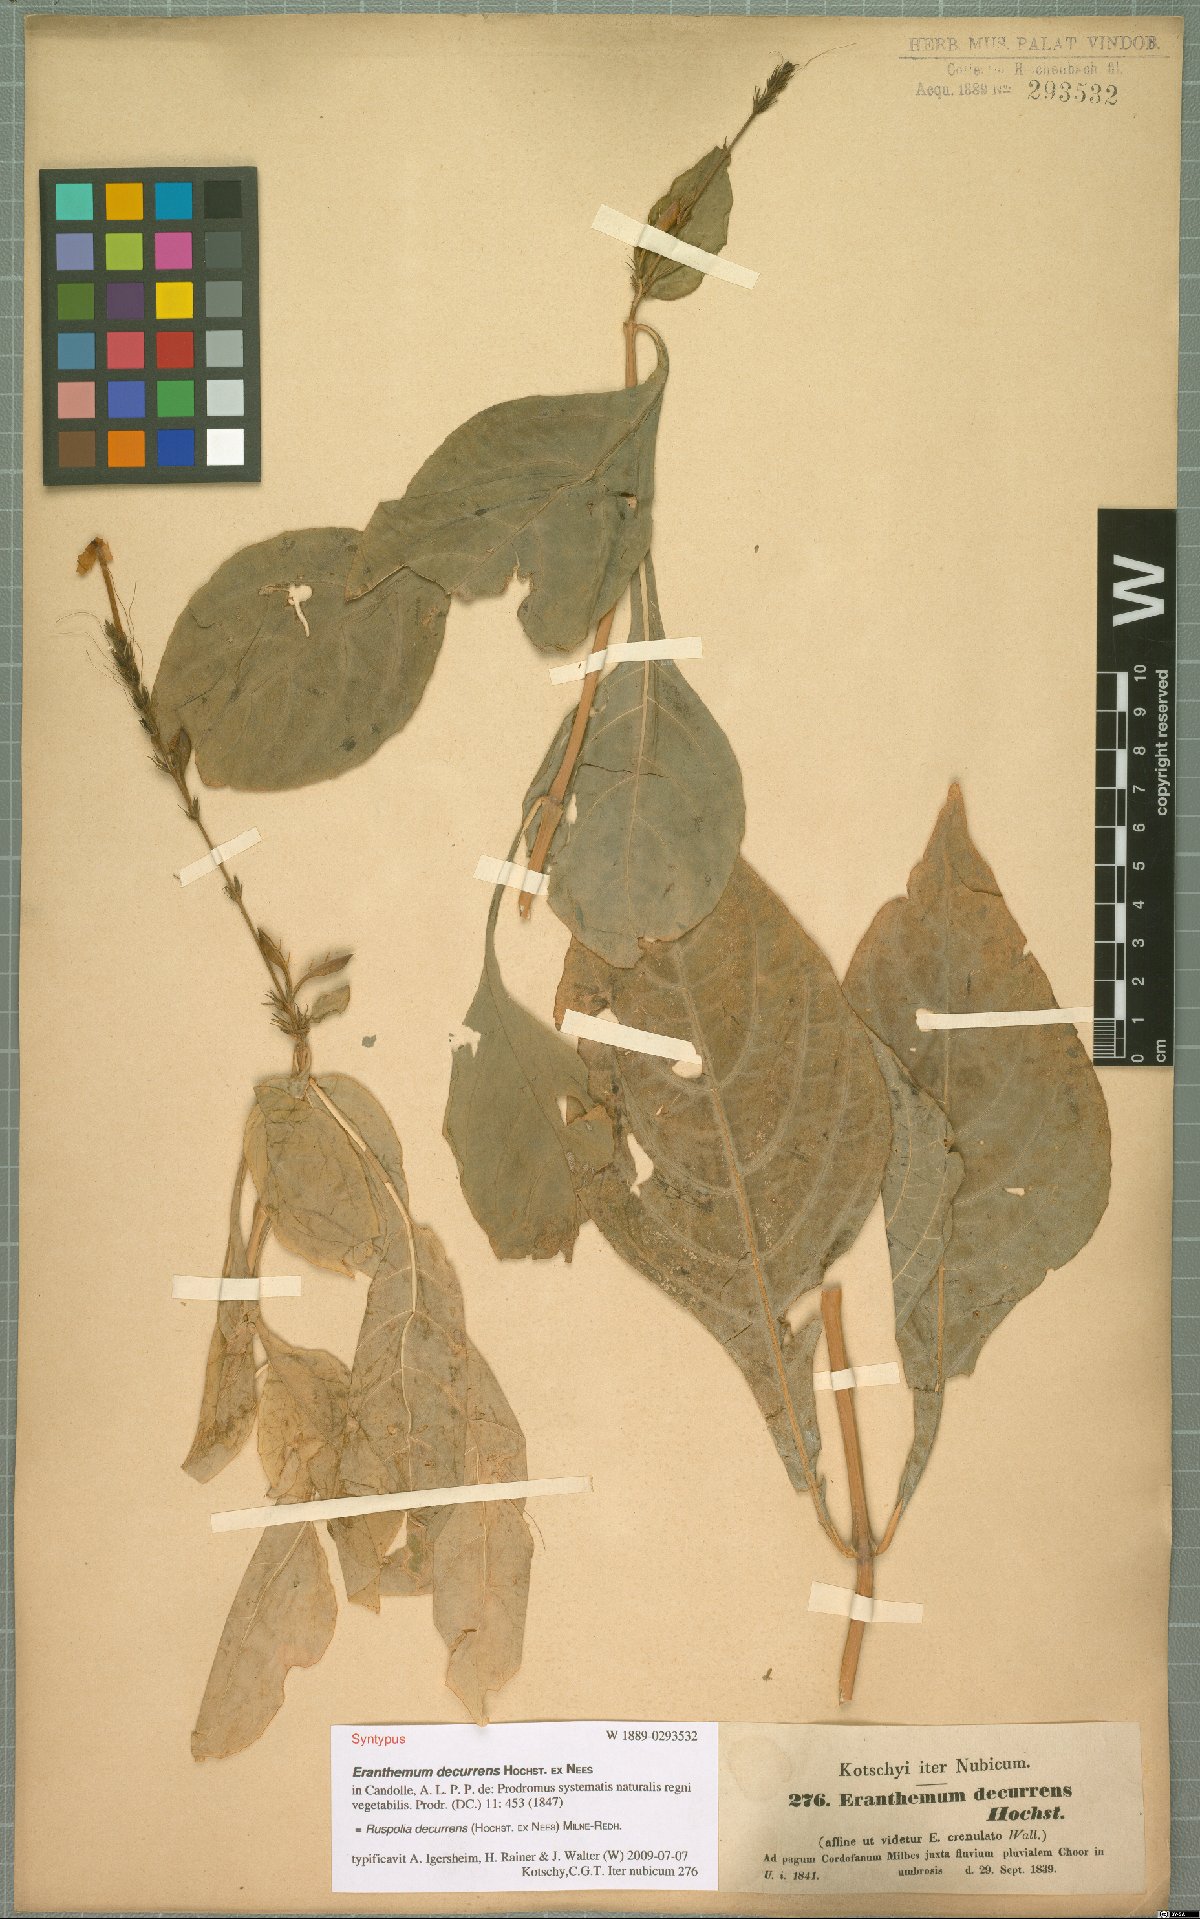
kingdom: Plantae
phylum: Tracheophyta
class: Magnoliopsida
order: Lamiales
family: Acanthaceae
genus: Ruspolia
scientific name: Ruspolia decurrens
